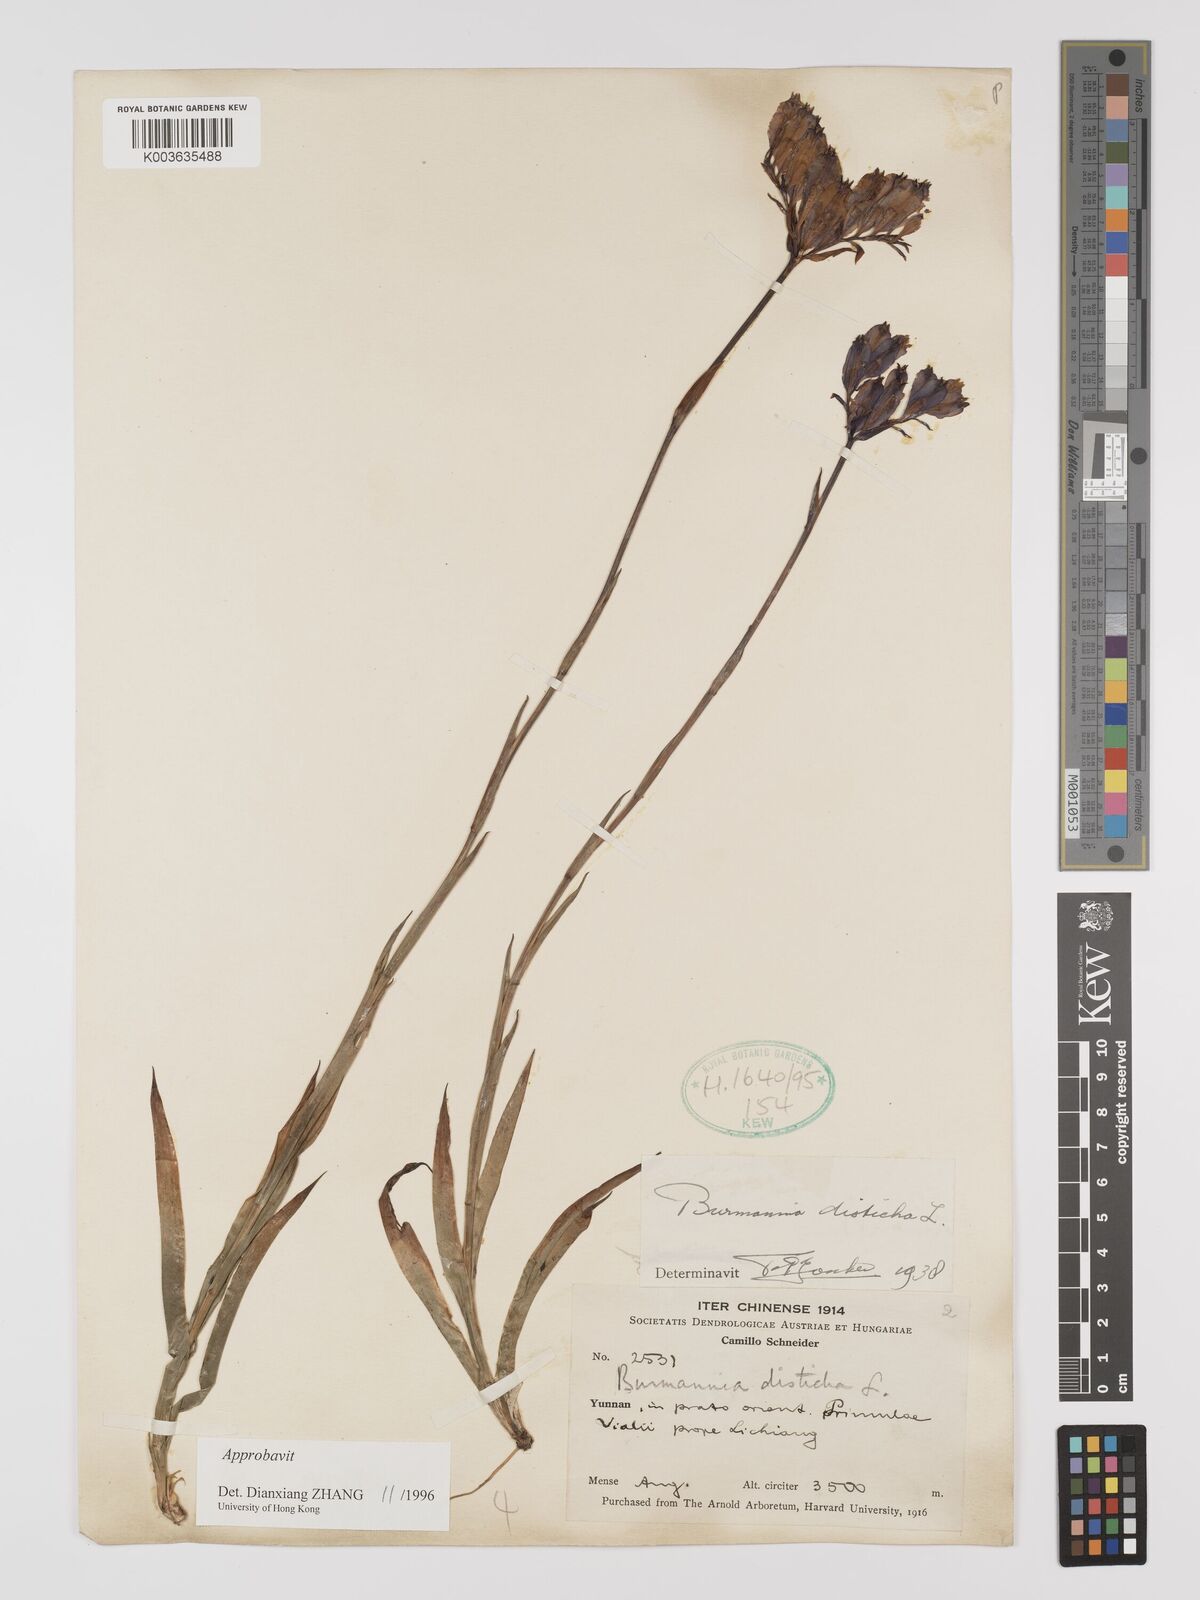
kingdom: Plantae
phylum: Tracheophyta
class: Liliopsida
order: Dioscoreales
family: Burmanniaceae
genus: Burmannia
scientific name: Burmannia disticha
